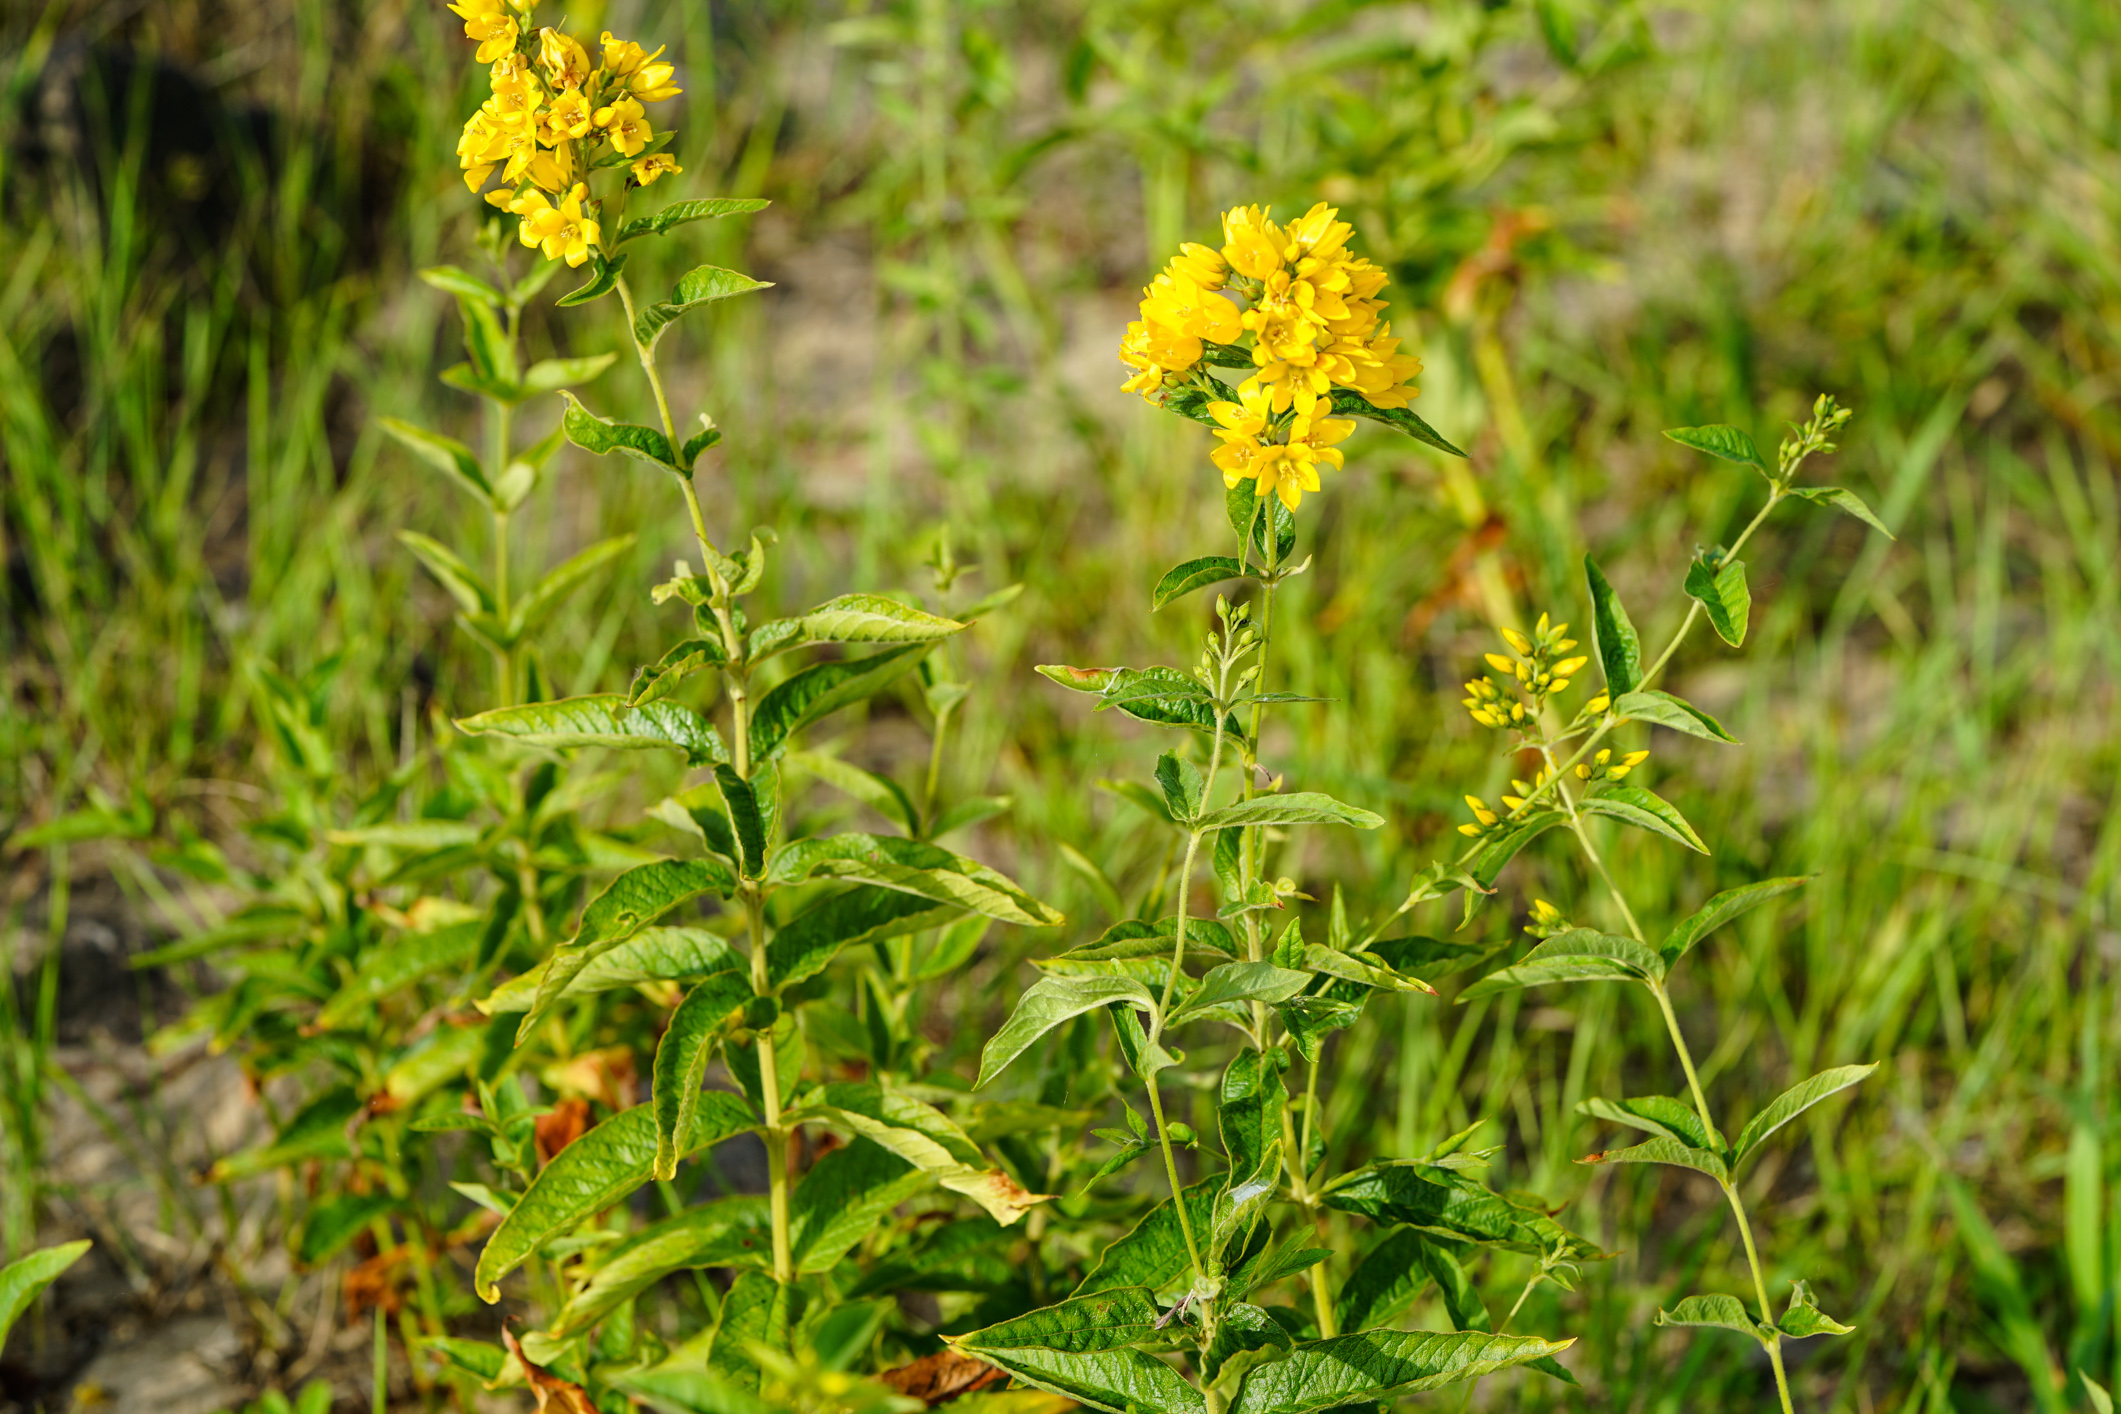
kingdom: Plantae
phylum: Tracheophyta
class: Magnoliopsida
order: Ericales
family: Primulaceae
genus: Lysimachia
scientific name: Lysimachia vulgaris
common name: Yellow loosestrife
